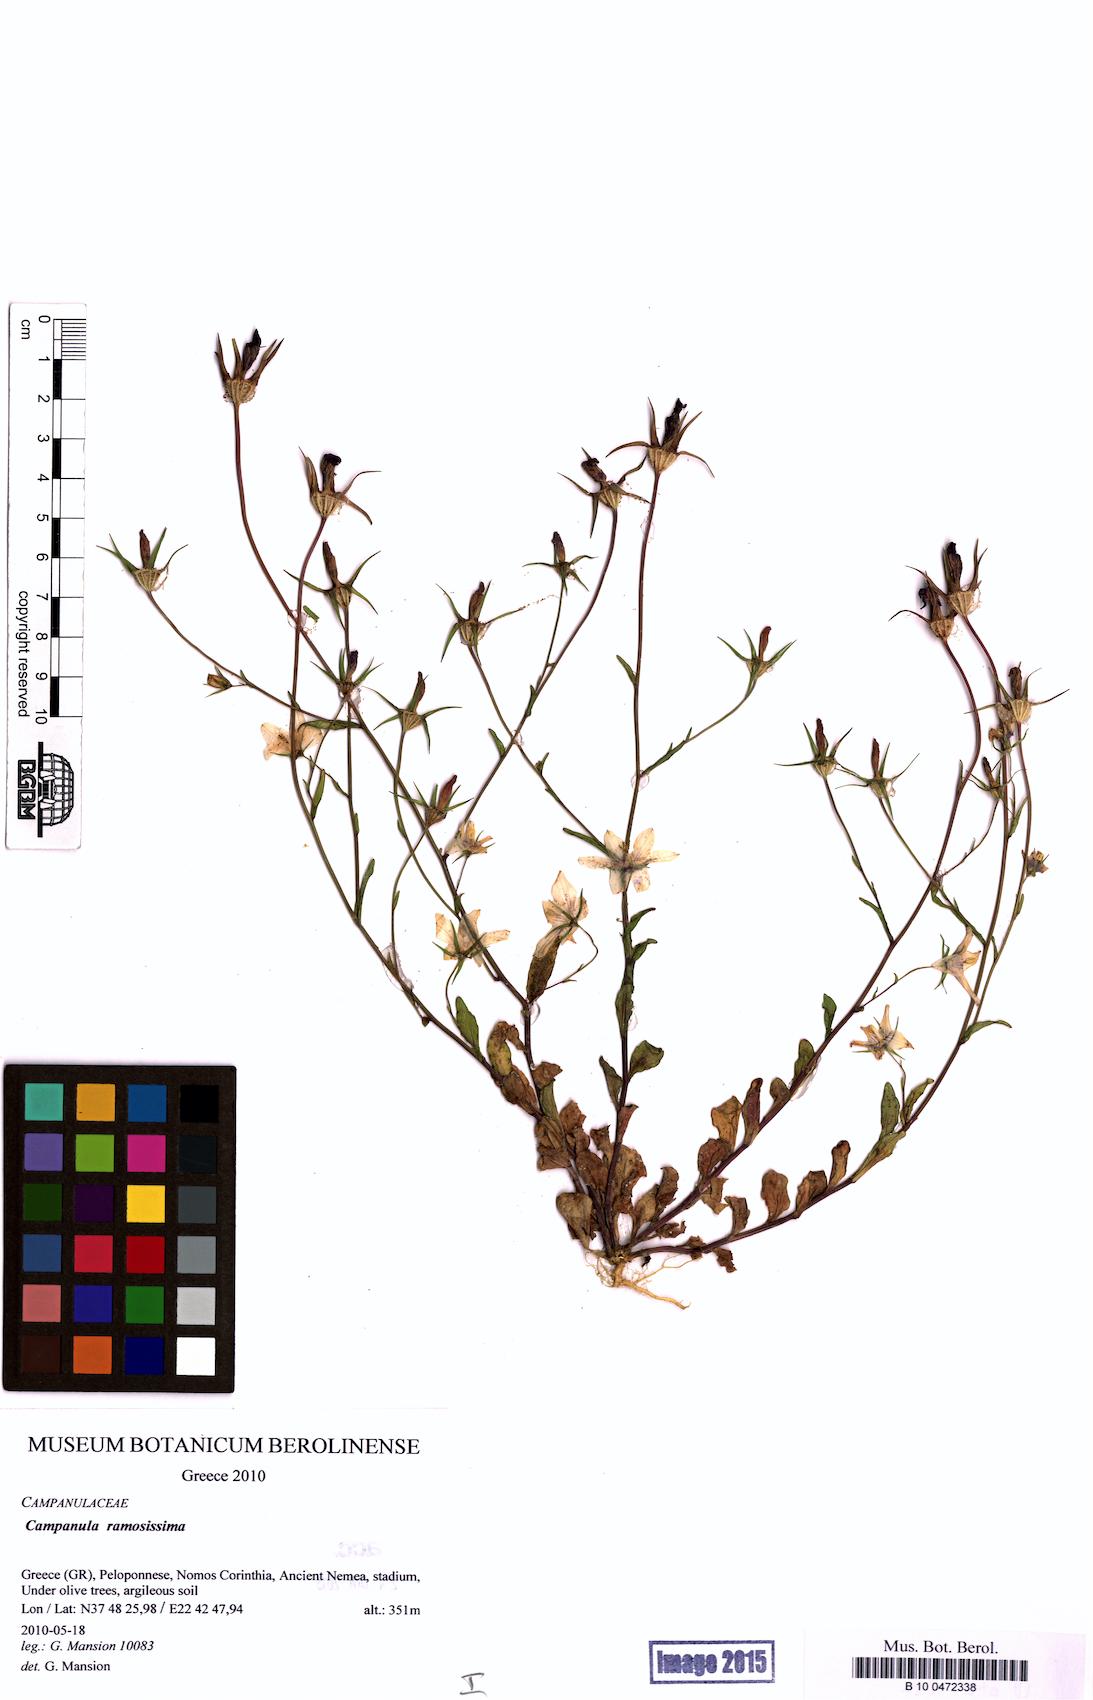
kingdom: Plantae
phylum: Tracheophyta
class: Magnoliopsida
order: Asterales
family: Campanulaceae
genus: Campanula
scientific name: Campanula ramosissima
